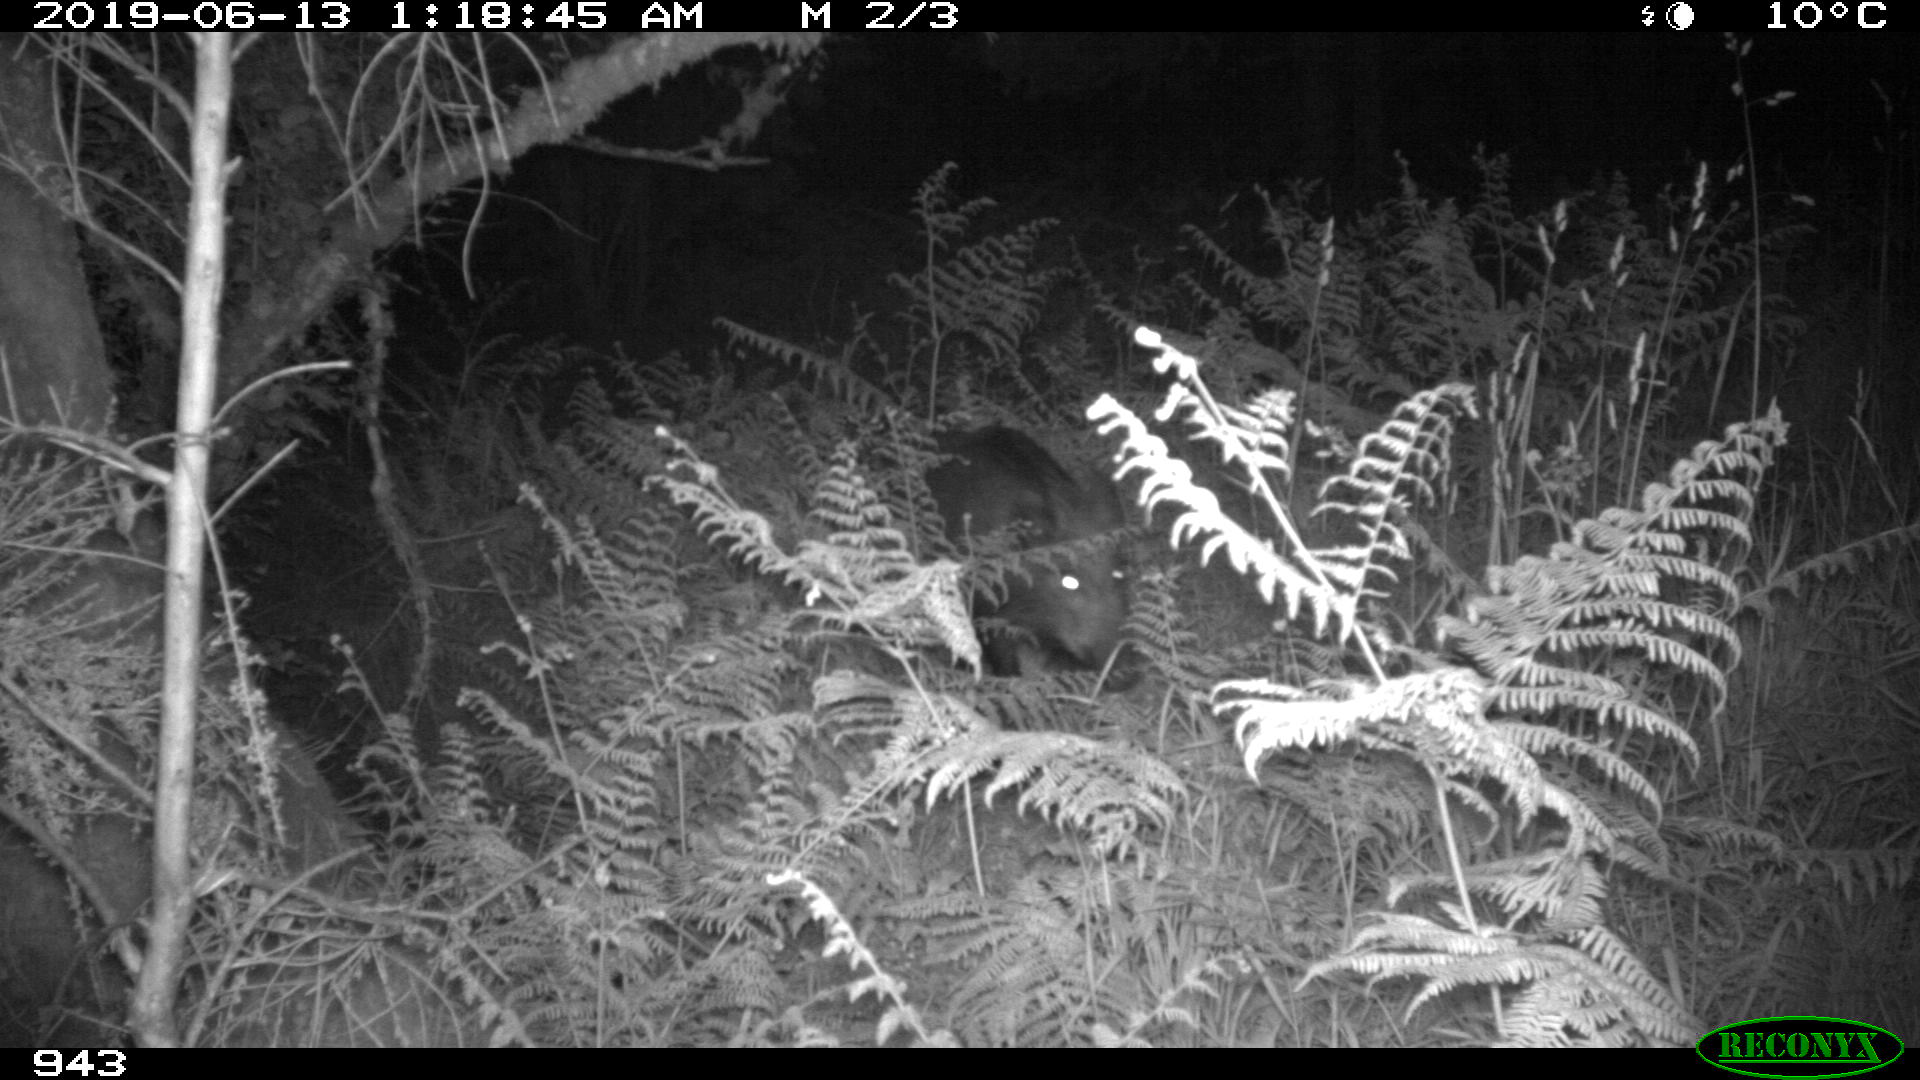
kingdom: Animalia
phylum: Chordata
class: Mammalia
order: Artiodactyla
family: Suidae
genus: Sus
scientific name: Sus scrofa
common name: Wild boar
